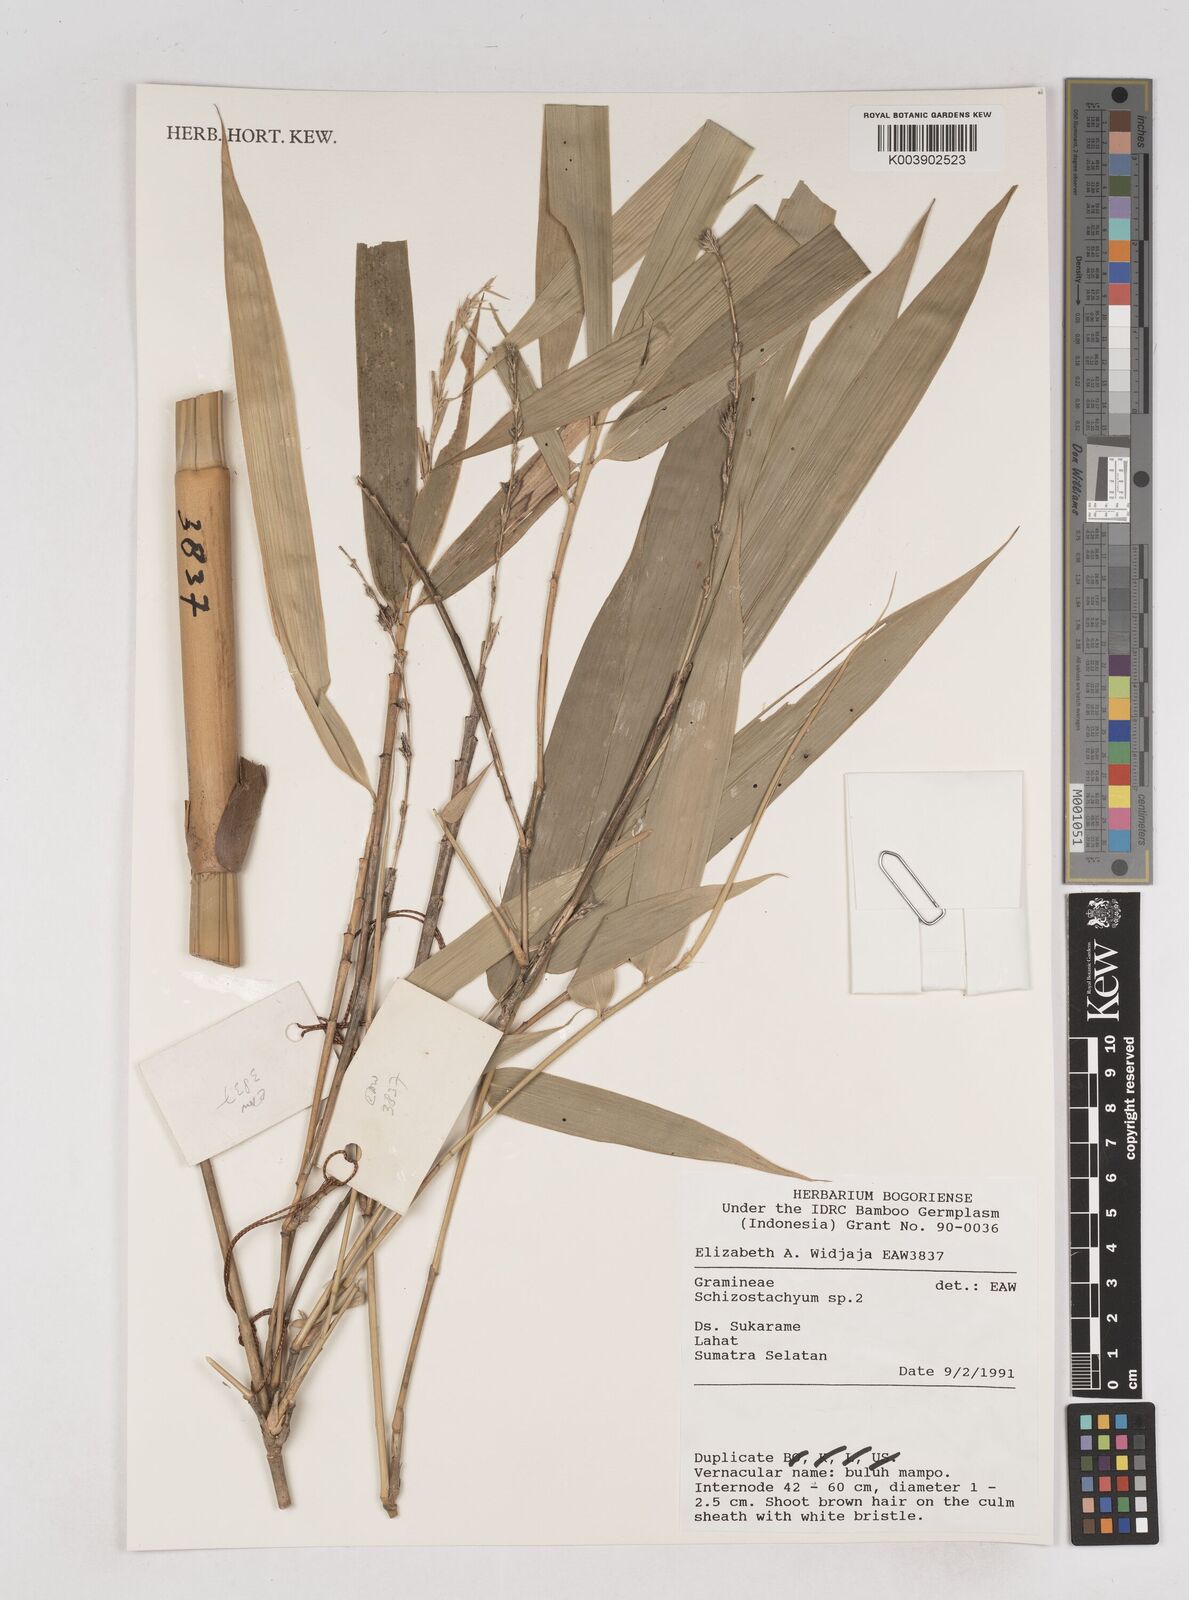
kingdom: Plantae
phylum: Tracheophyta
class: Liliopsida
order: Poales
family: Poaceae
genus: Schizostachyum
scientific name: Schizostachyum
